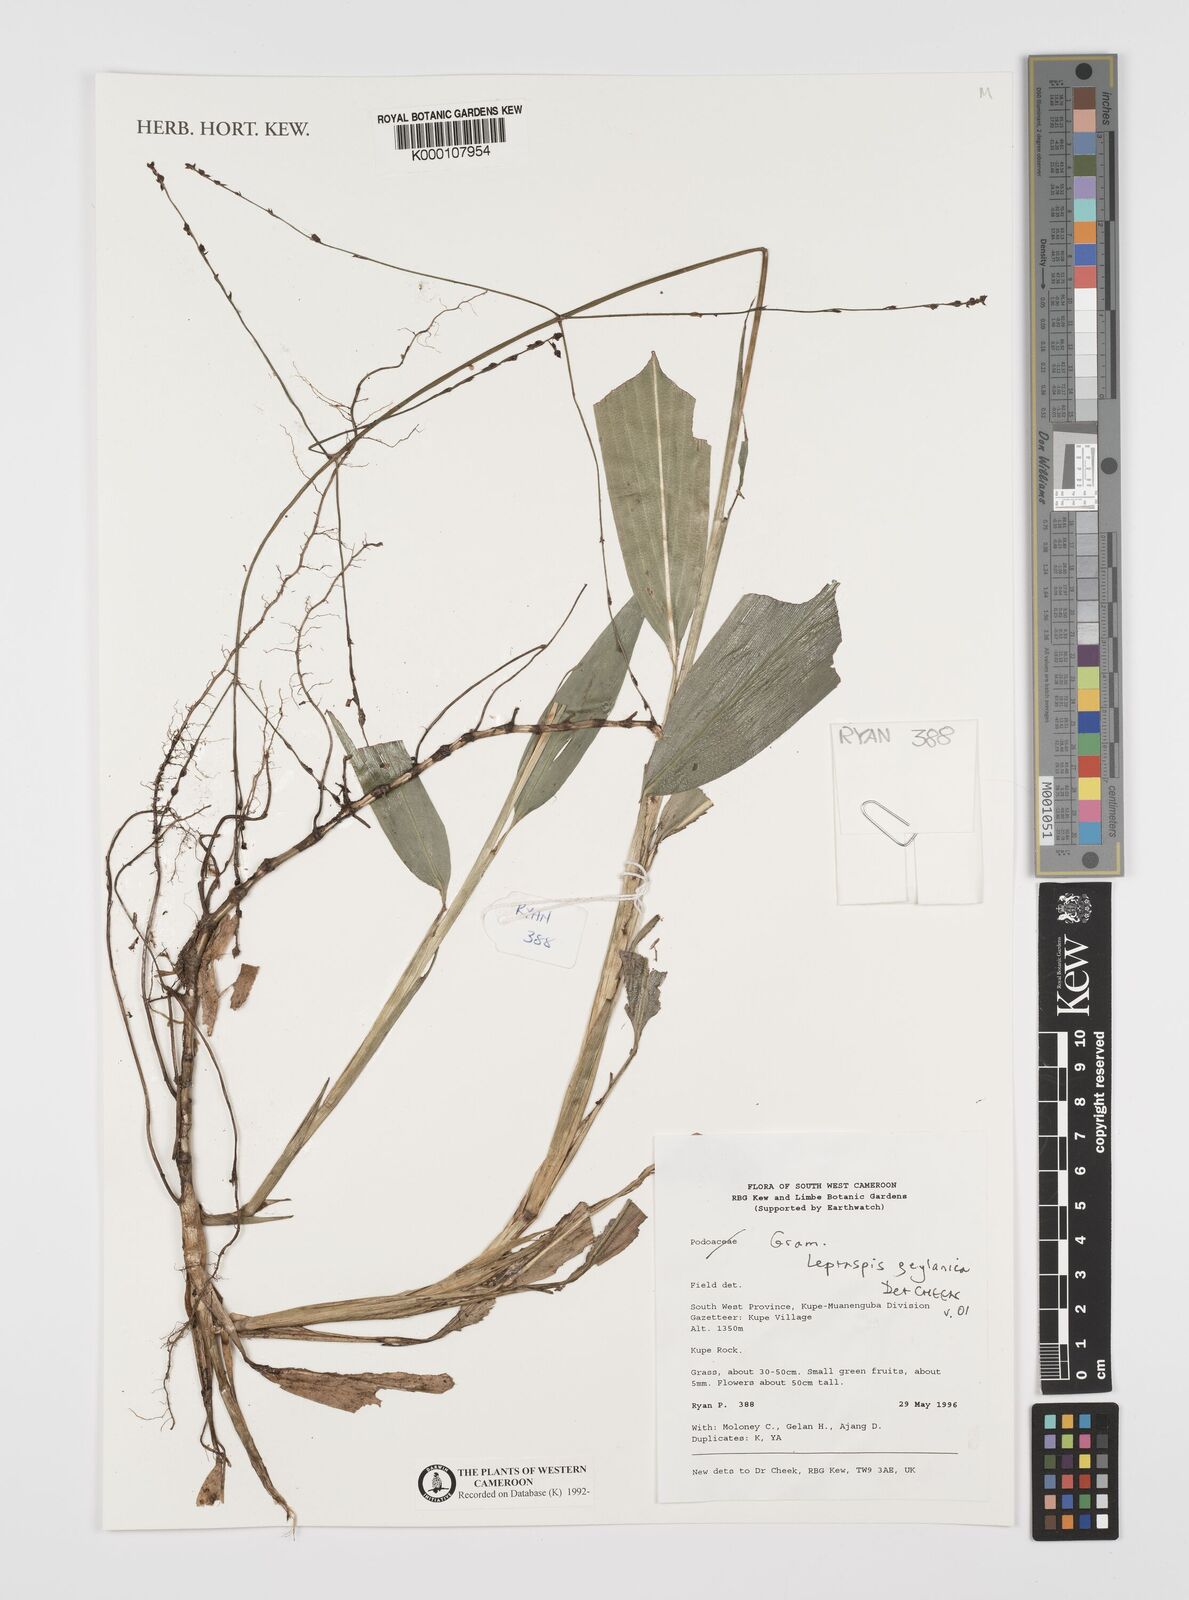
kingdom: Plantae
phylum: Tracheophyta
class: Liliopsida
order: Poales
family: Poaceae
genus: Leptaspis
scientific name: Leptaspis zeylanica
